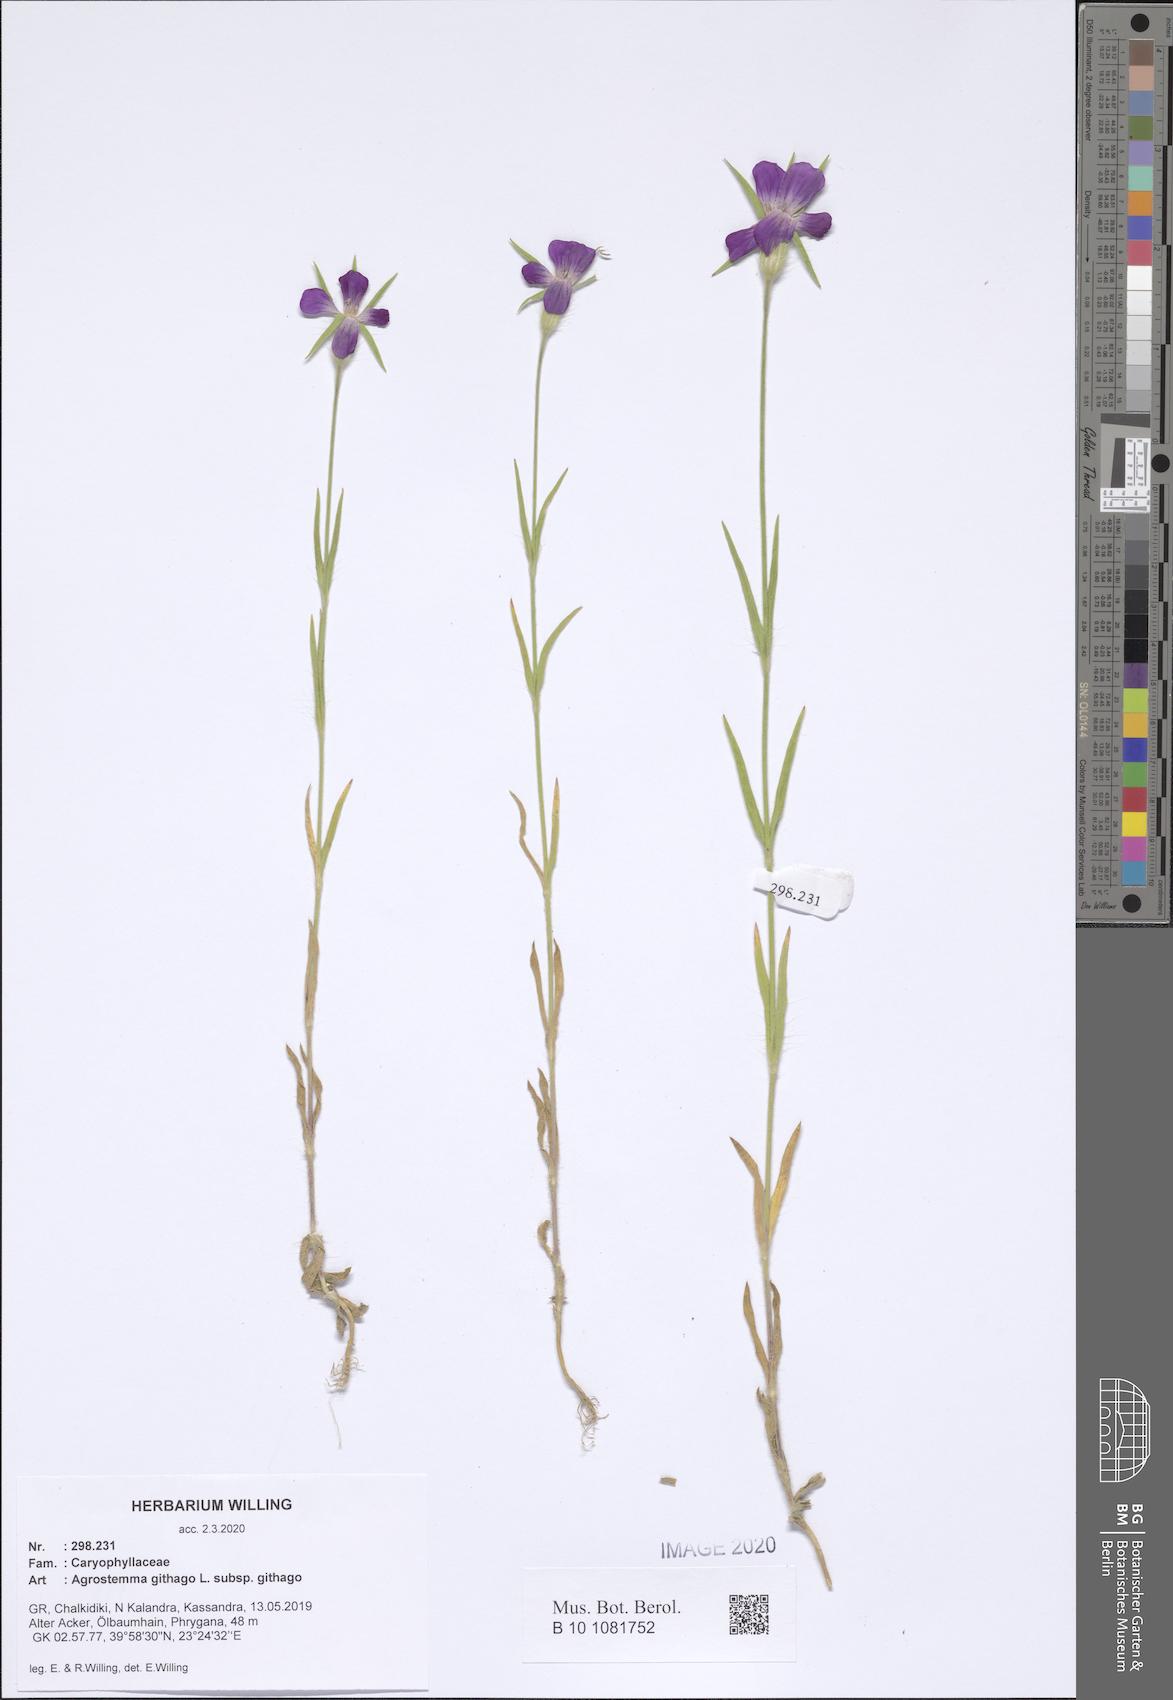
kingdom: Plantae
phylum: Tracheophyta
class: Magnoliopsida
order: Caryophyllales
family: Caryophyllaceae
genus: Agrostemma
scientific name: Agrostemma githago
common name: Common corncockle
